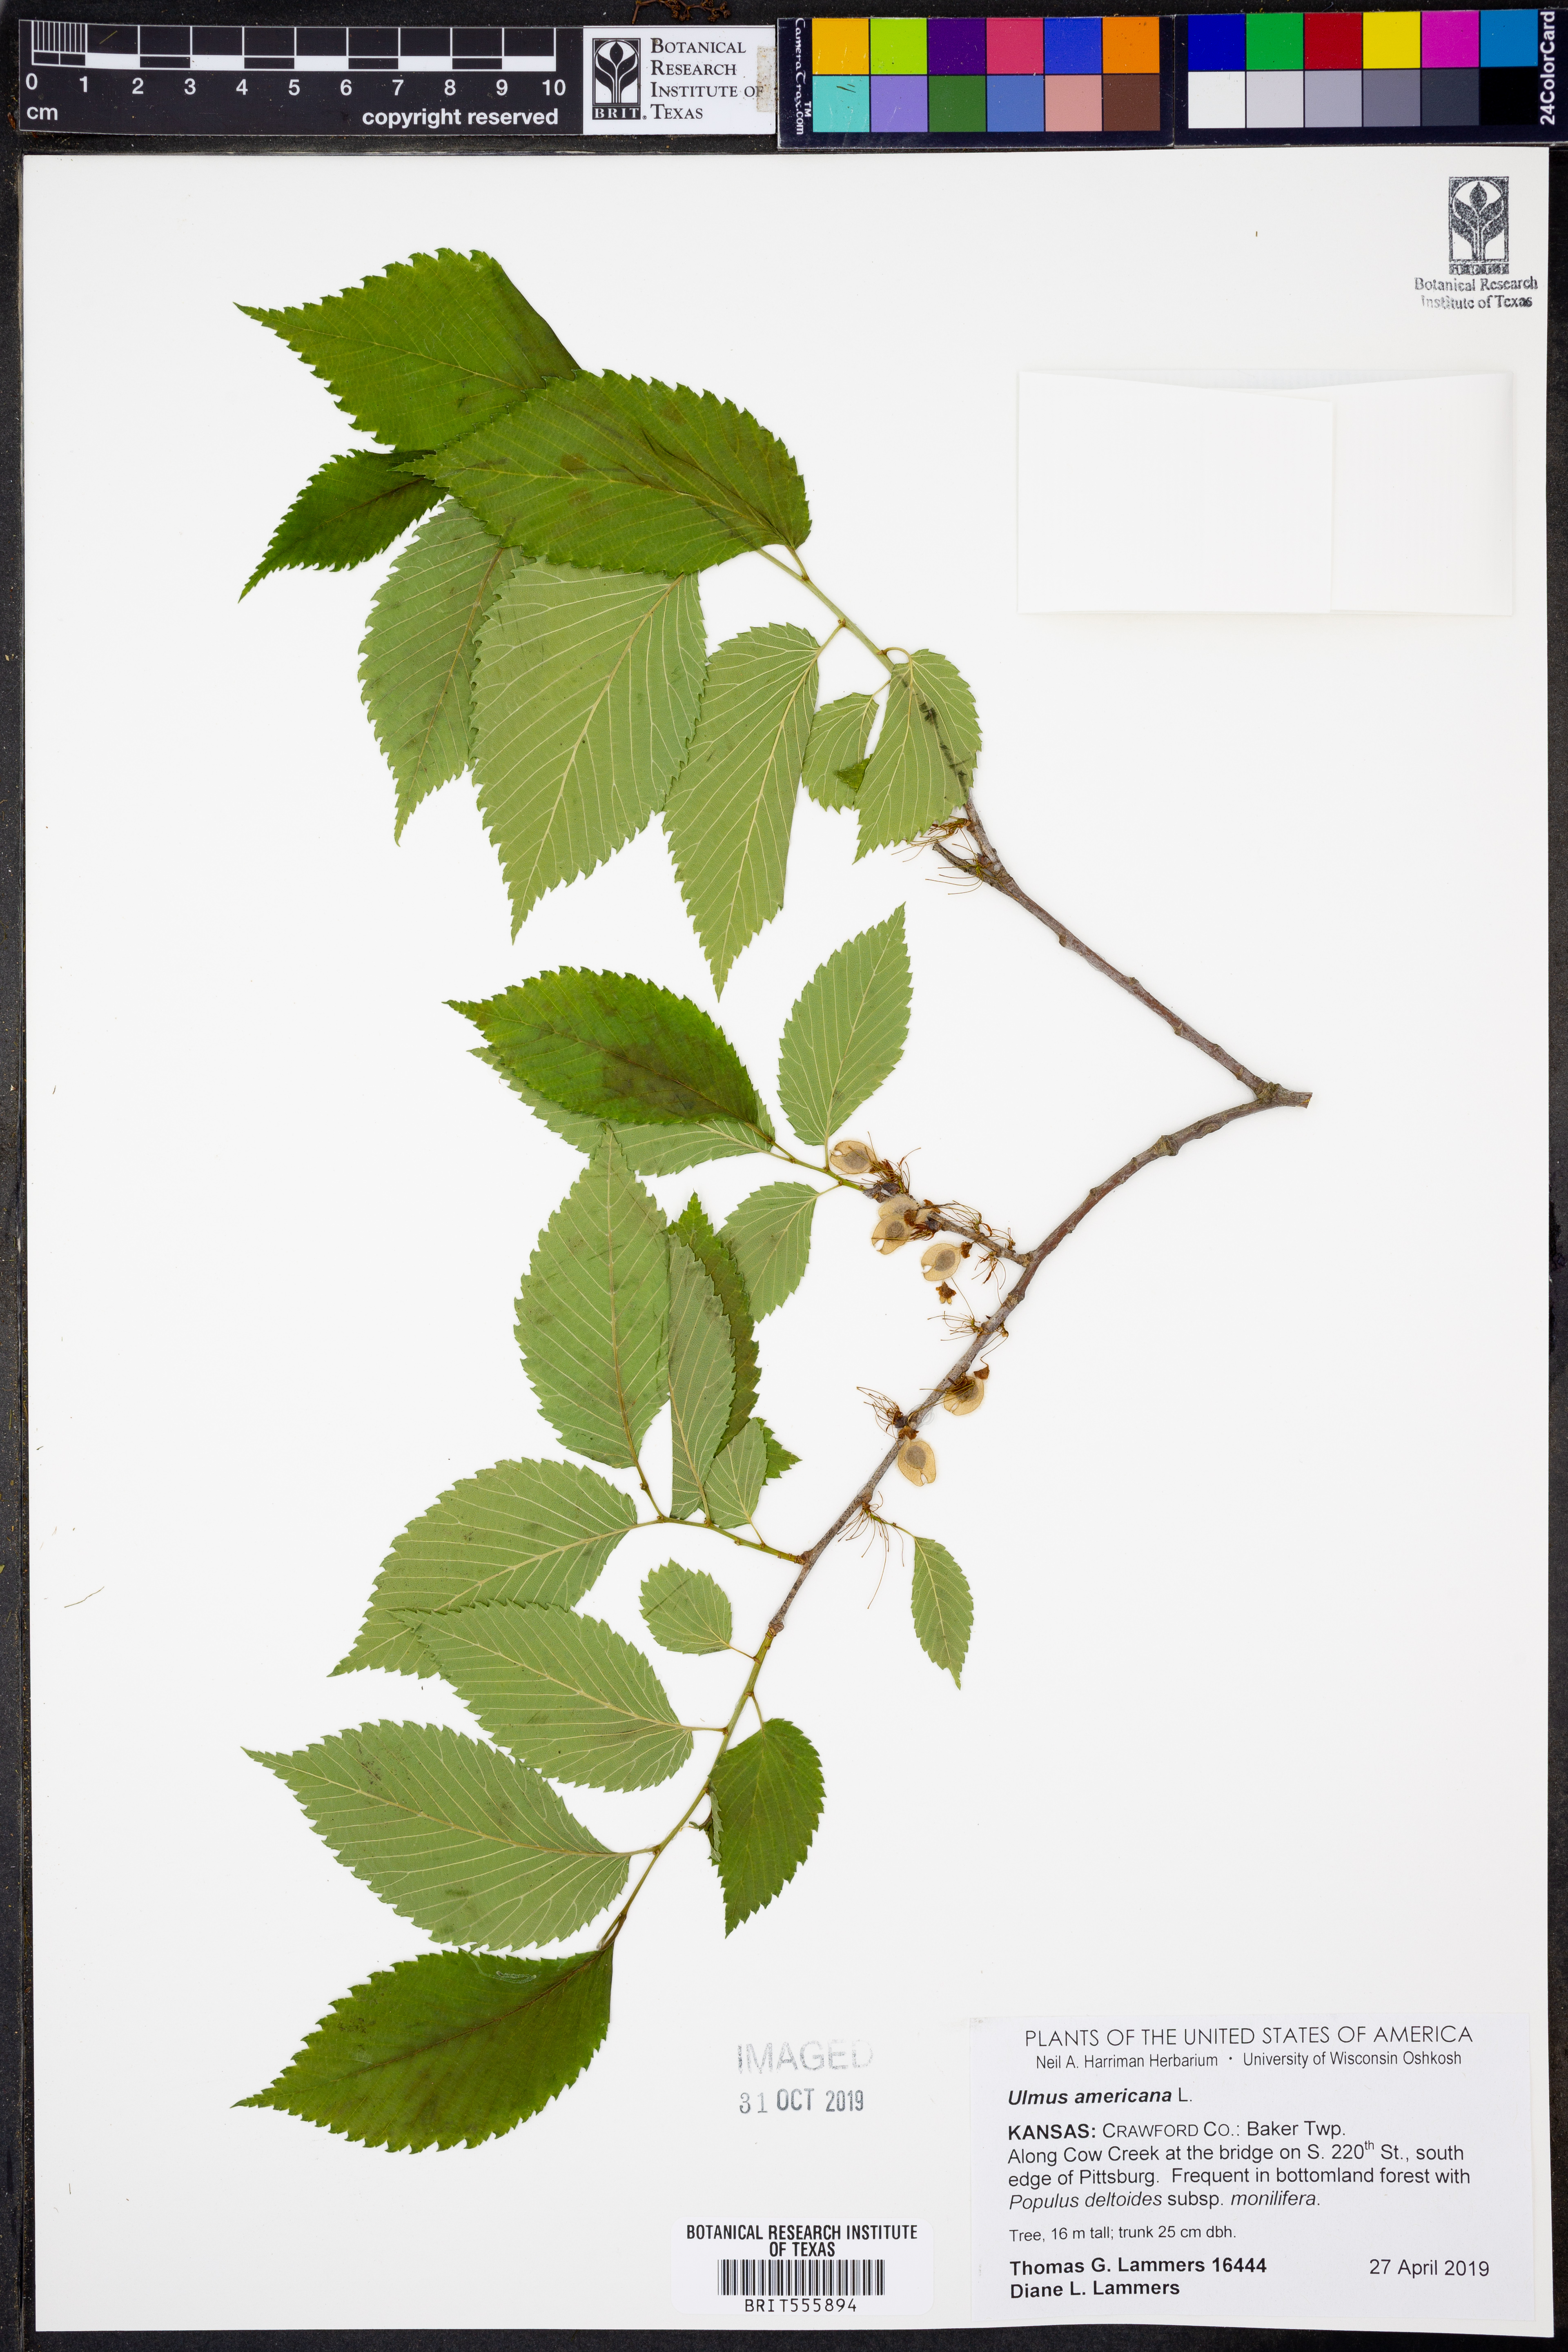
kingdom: Plantae
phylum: Tracheophyta
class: Magnoliopsida
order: Rosales
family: Ulmaceae
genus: Ulmus
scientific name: Ulmus americana
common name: American elm
